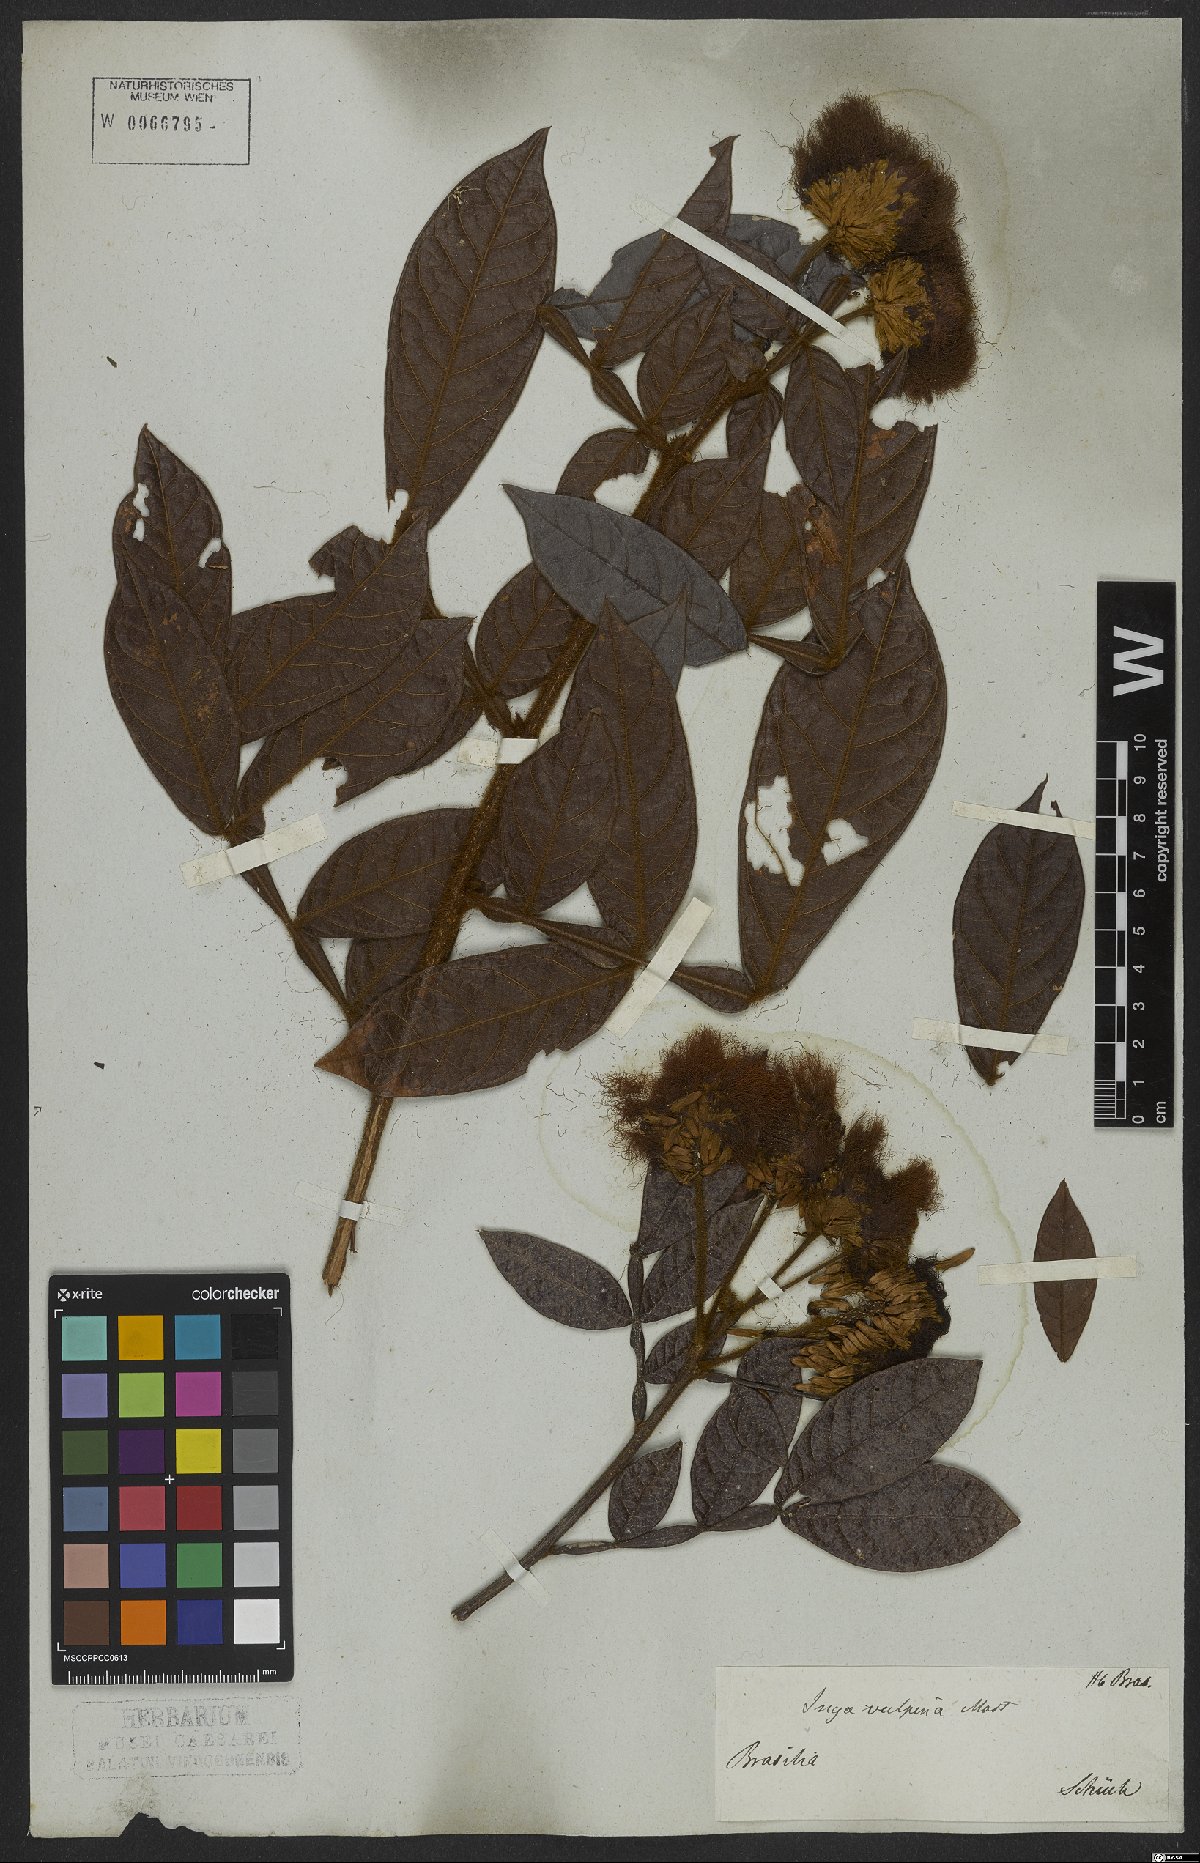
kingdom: Plantae
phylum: Tracheophyta
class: Magnoliopsida
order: Fabales
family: Fabaceae
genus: Inga
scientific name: Inga vulpina
